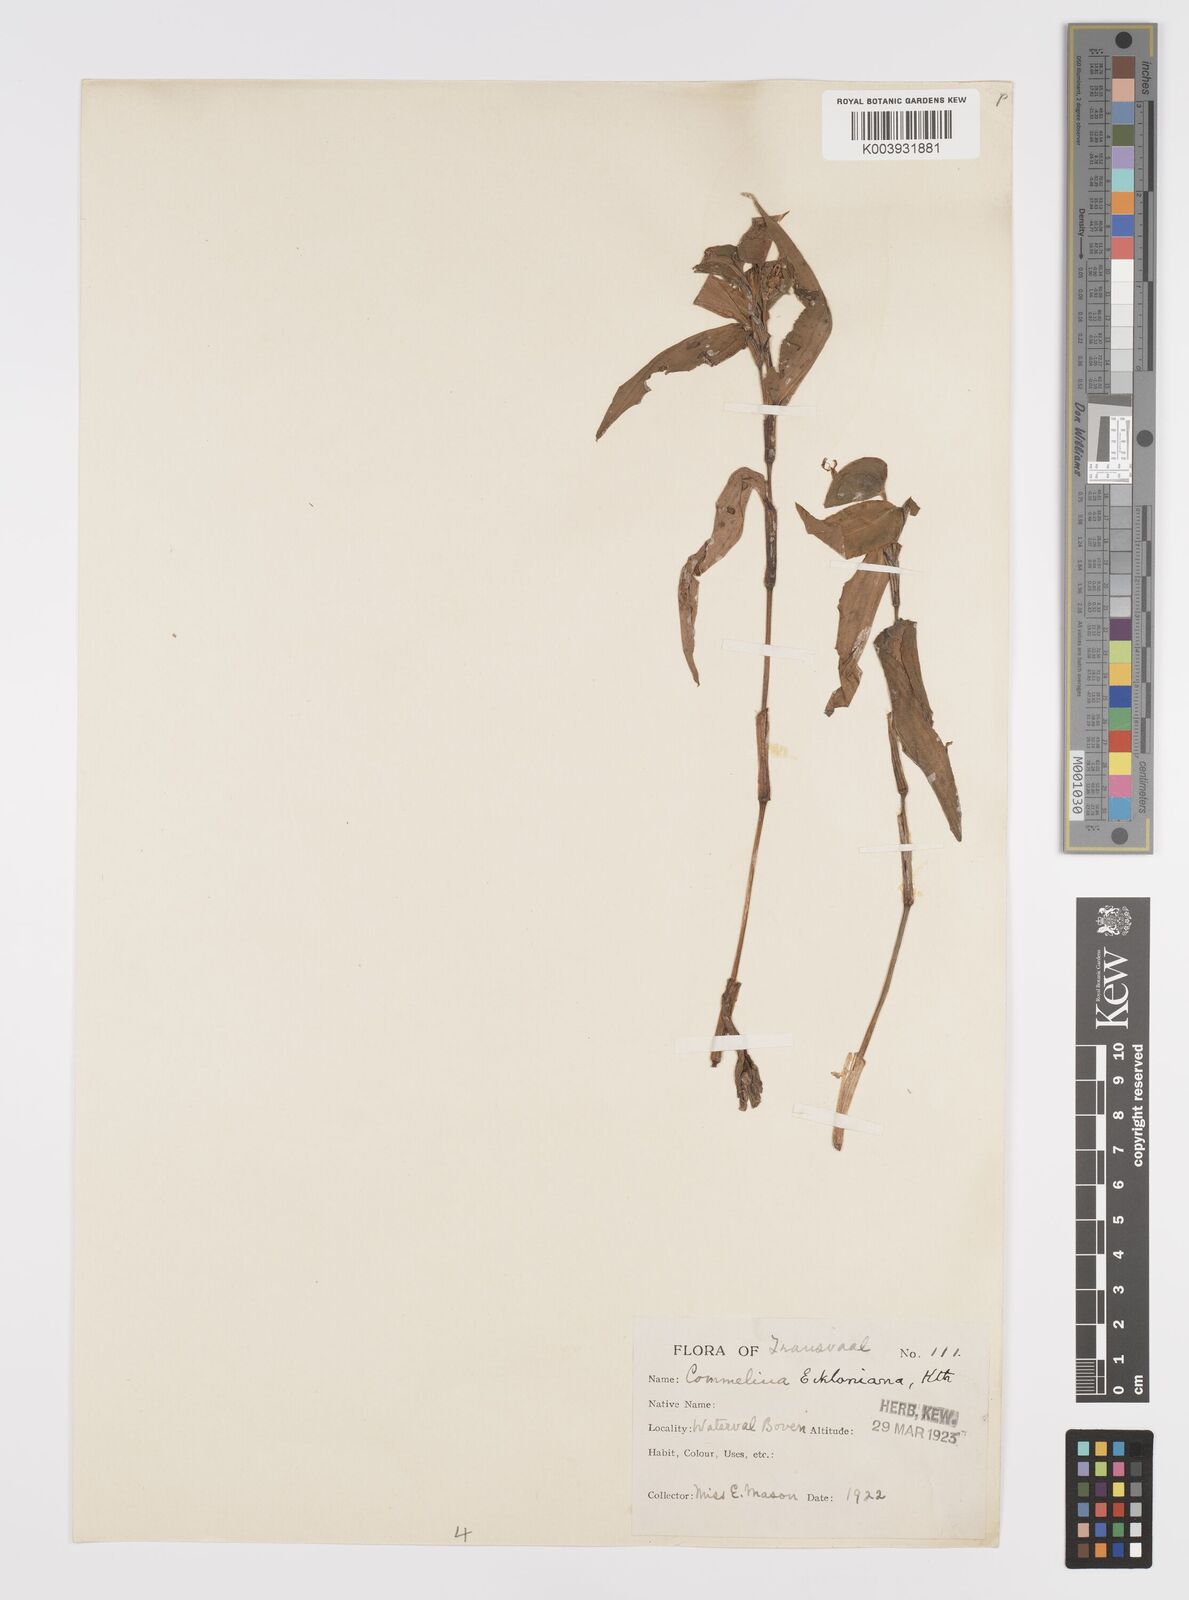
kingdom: Plantae
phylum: Tracheophyta
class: Liliopsida
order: Commelinales
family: Commelinaceae
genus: Commelina
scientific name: Commelina eckloniana
